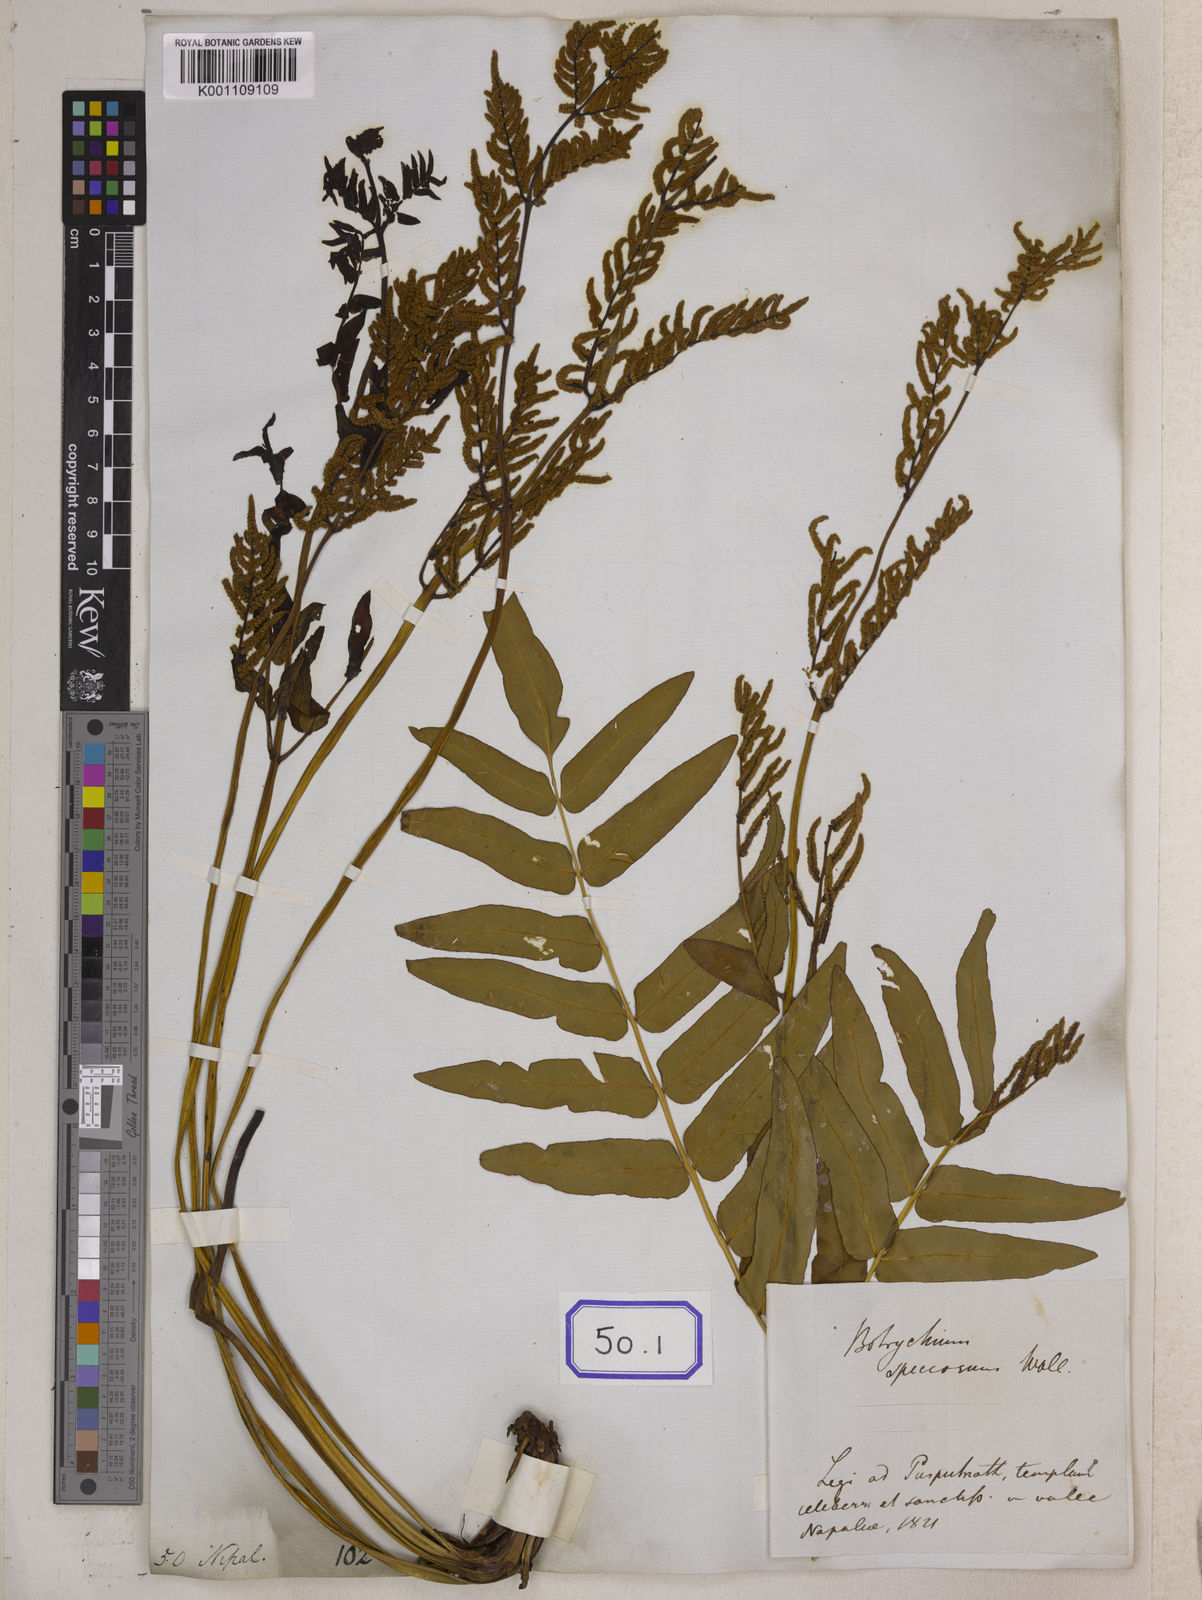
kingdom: Plantae
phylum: Tracheophyta
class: Polypodiopsida
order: Osmundales
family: Osmundaceae
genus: Osmunda
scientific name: Osmunda japonica
